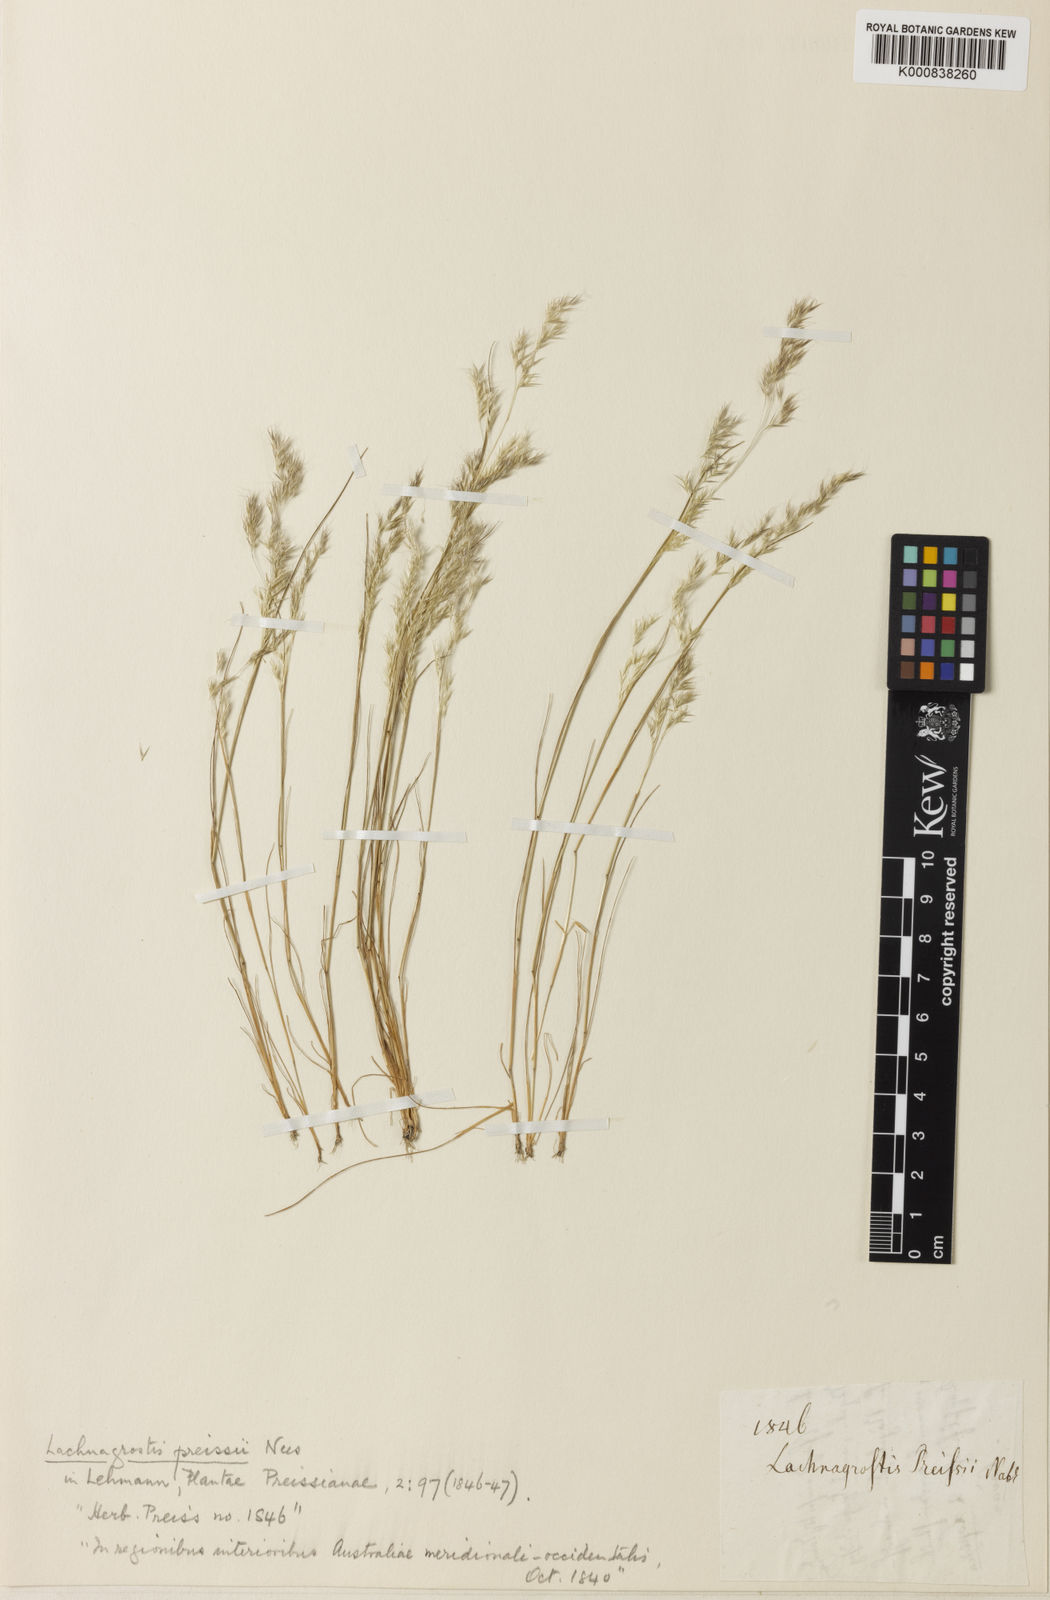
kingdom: Plantae
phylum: Tracheophyta
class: Liliopsida
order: Poales
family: Poaceae
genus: Lachnagrostis
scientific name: Lachnagrostis preissii
